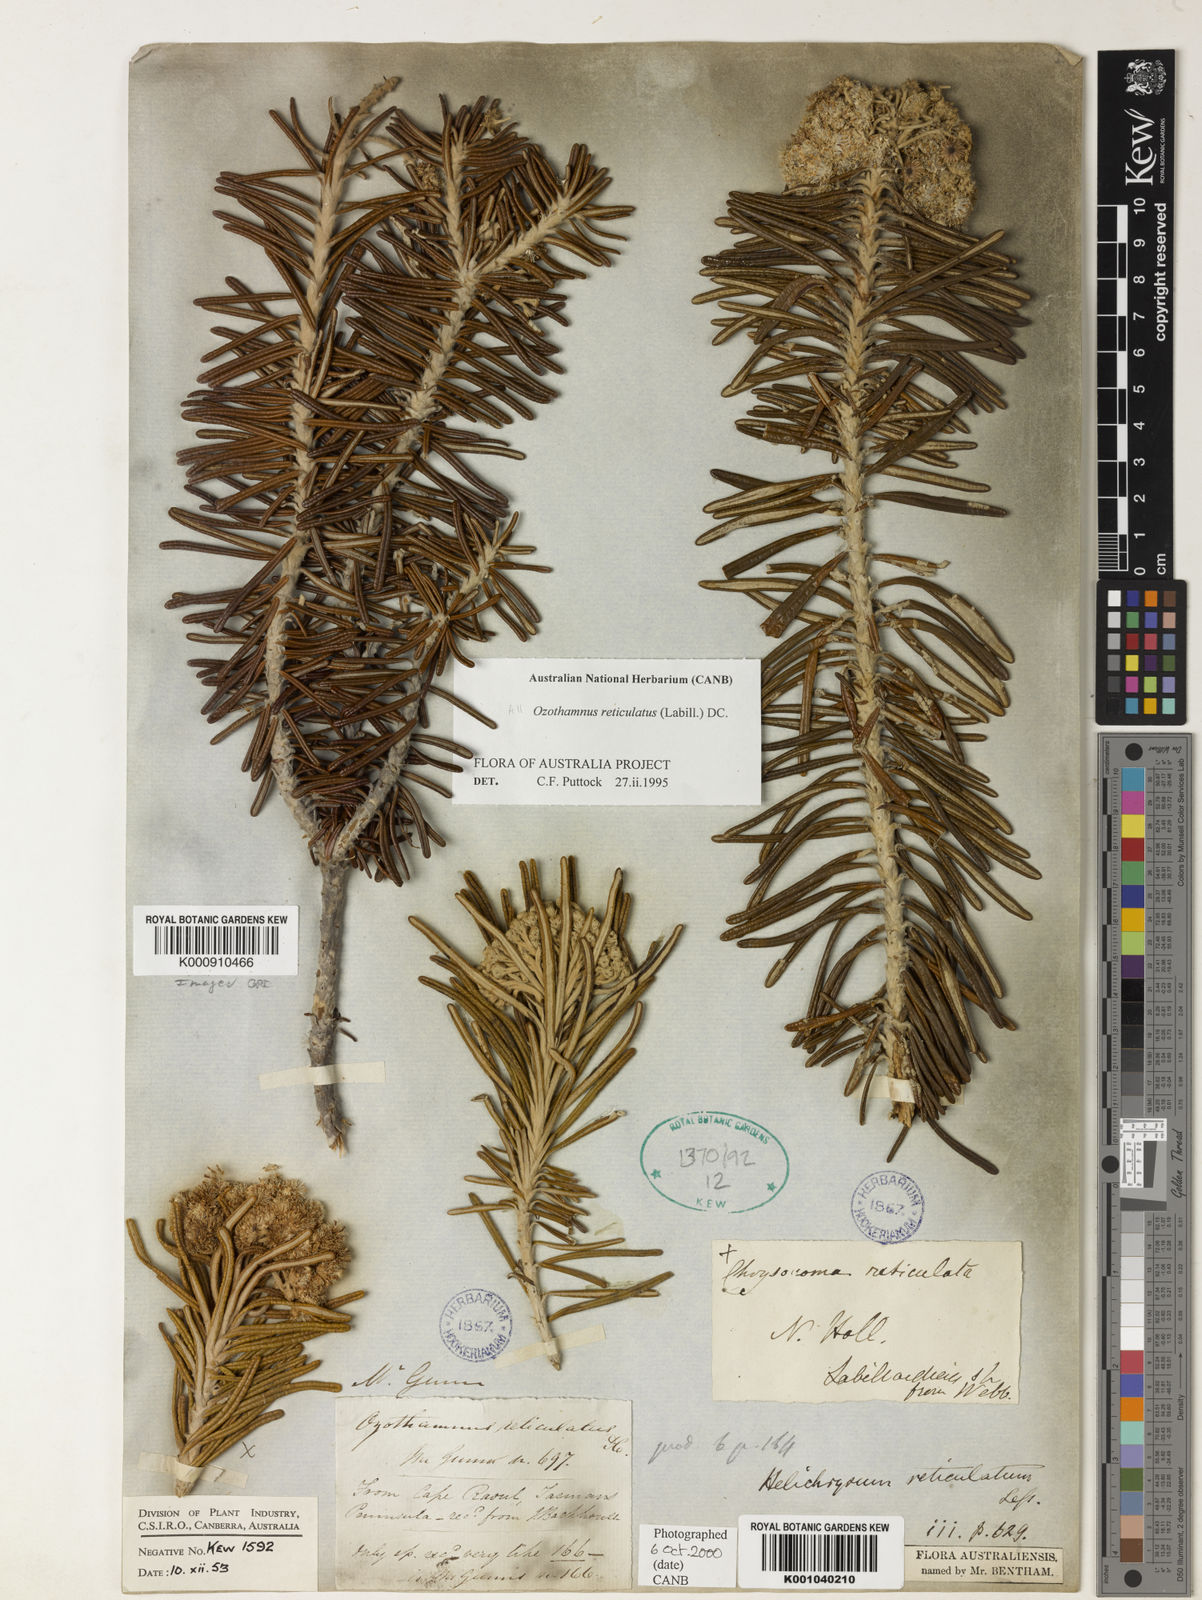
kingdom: Plantae
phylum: Tracheophyta
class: Magnoliopsida
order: Asterales
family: Asteraceae
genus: Ozothamnus
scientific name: Ozothamnus reticulatus
